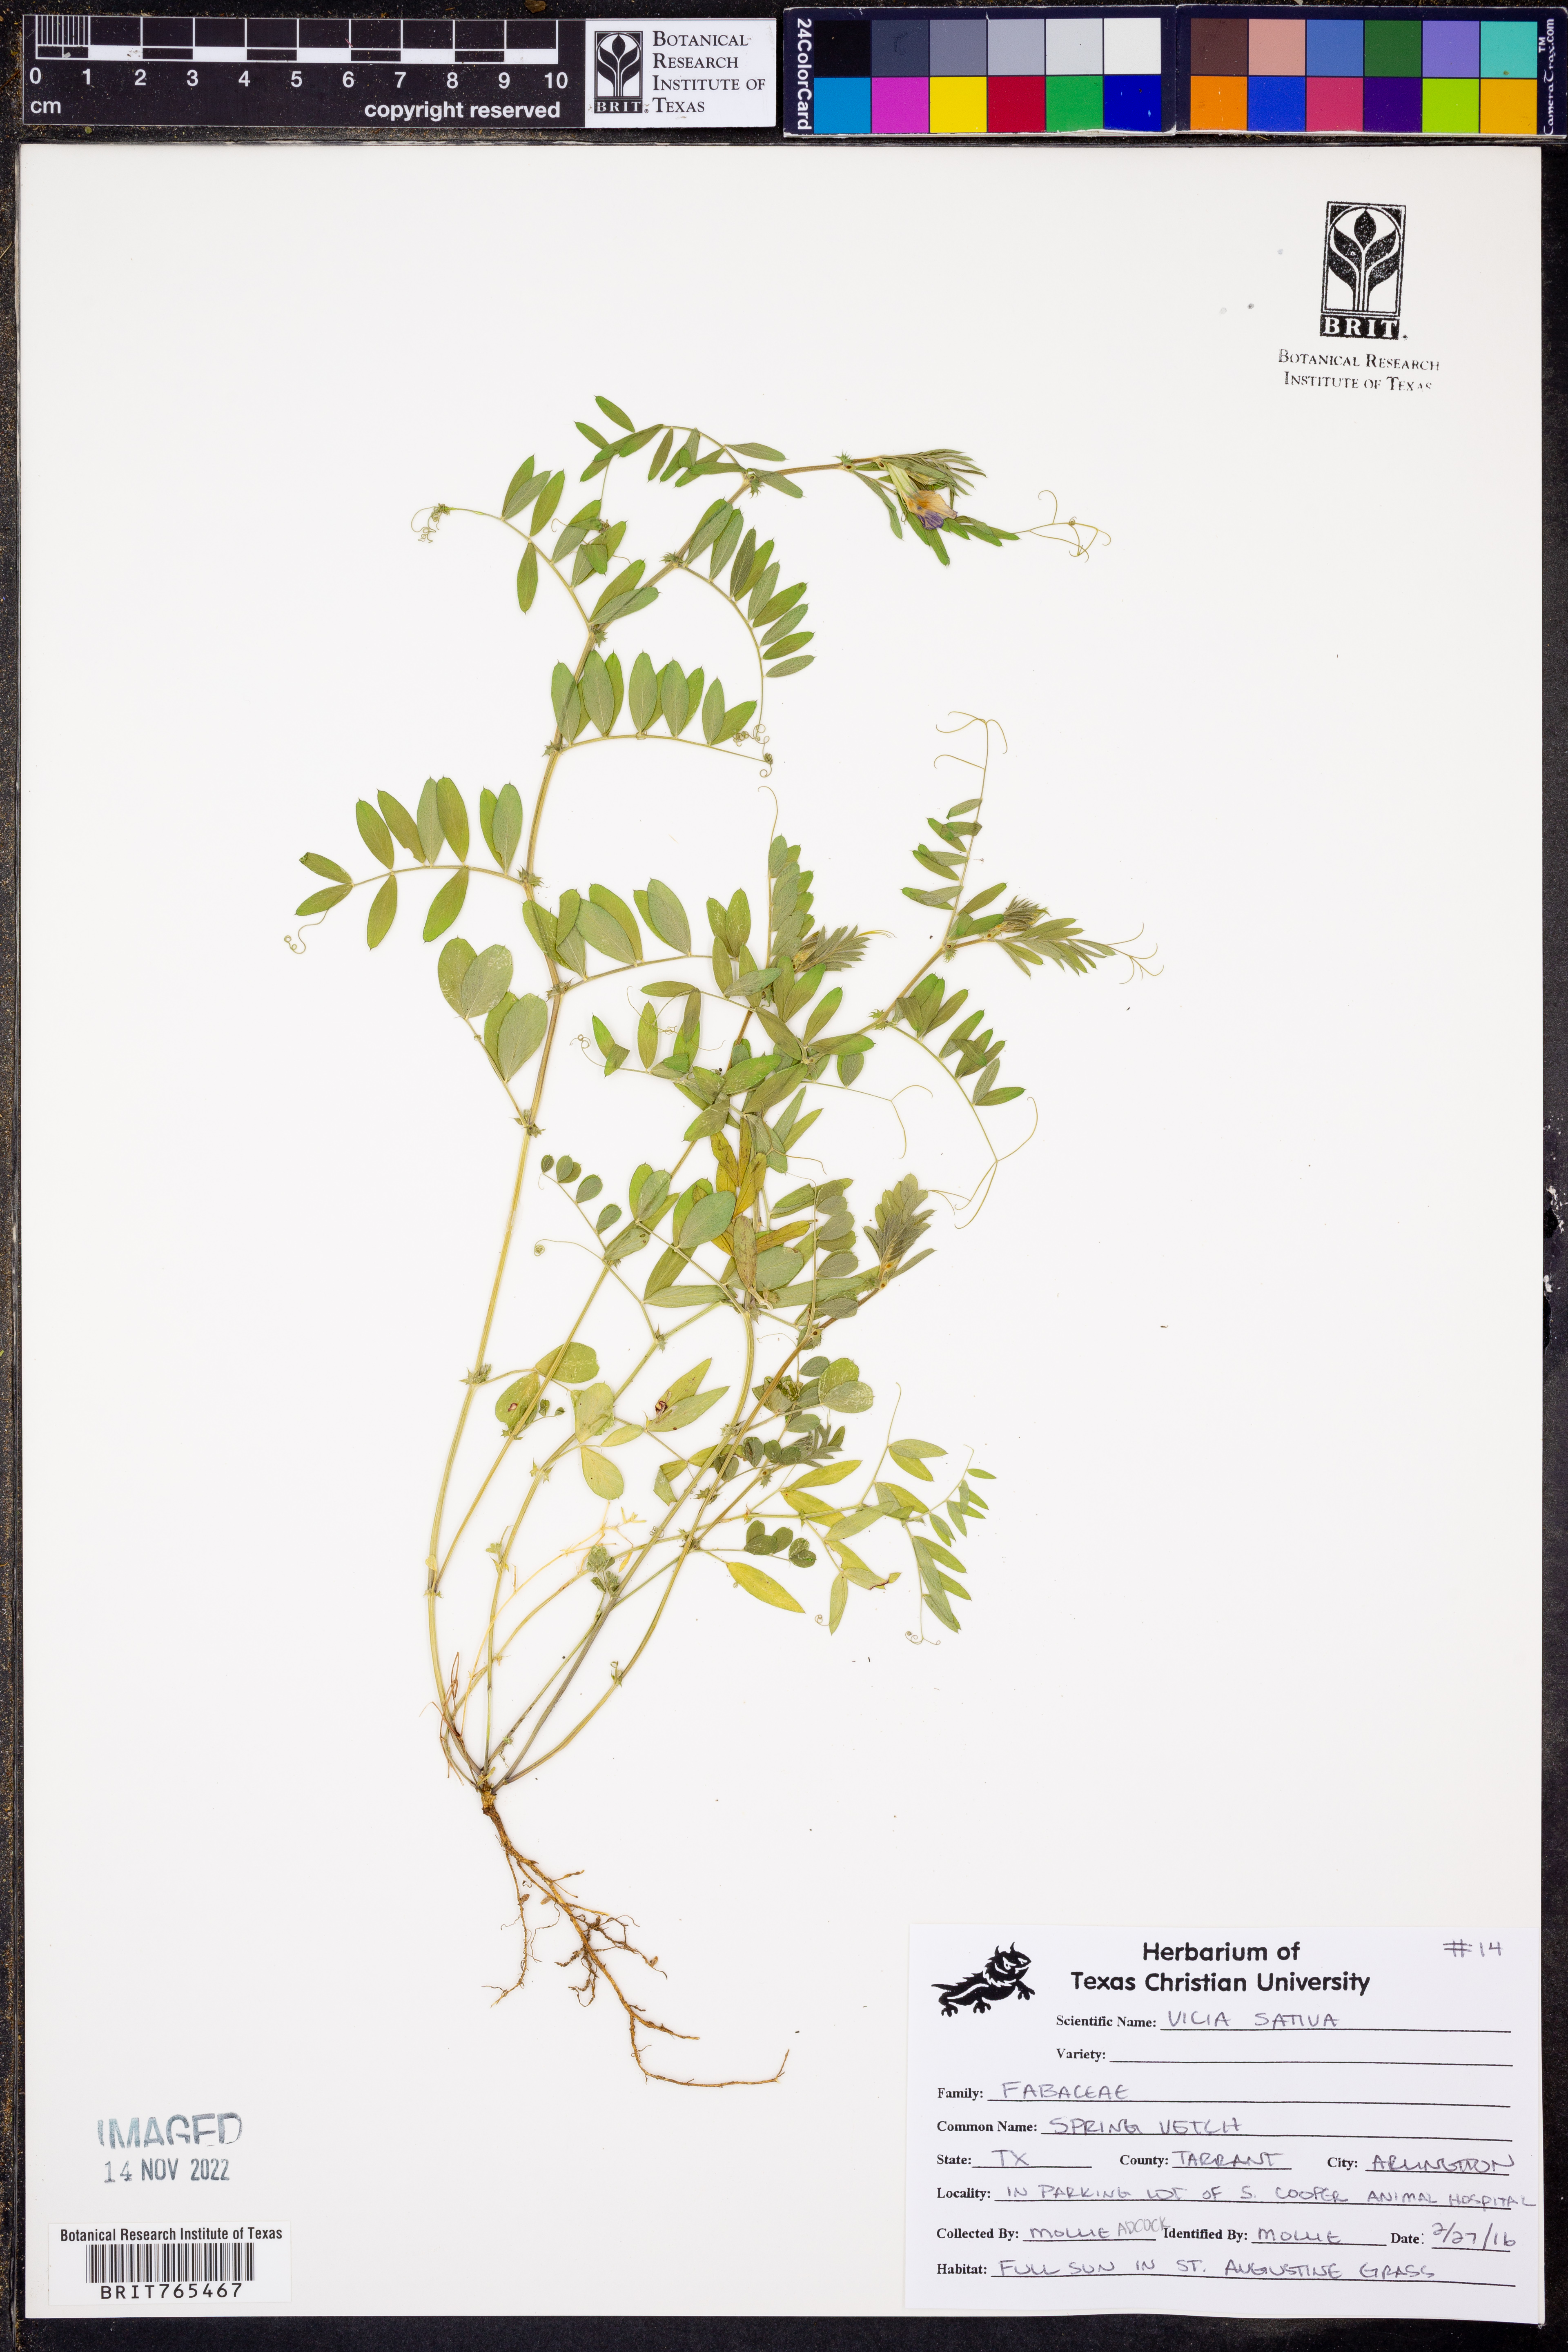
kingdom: Plantae
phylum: Tracheophyta
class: Magnoliopsida
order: Fabales
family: Fabaceae
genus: Vicia
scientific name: Vicia sativa
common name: Garden vetch
